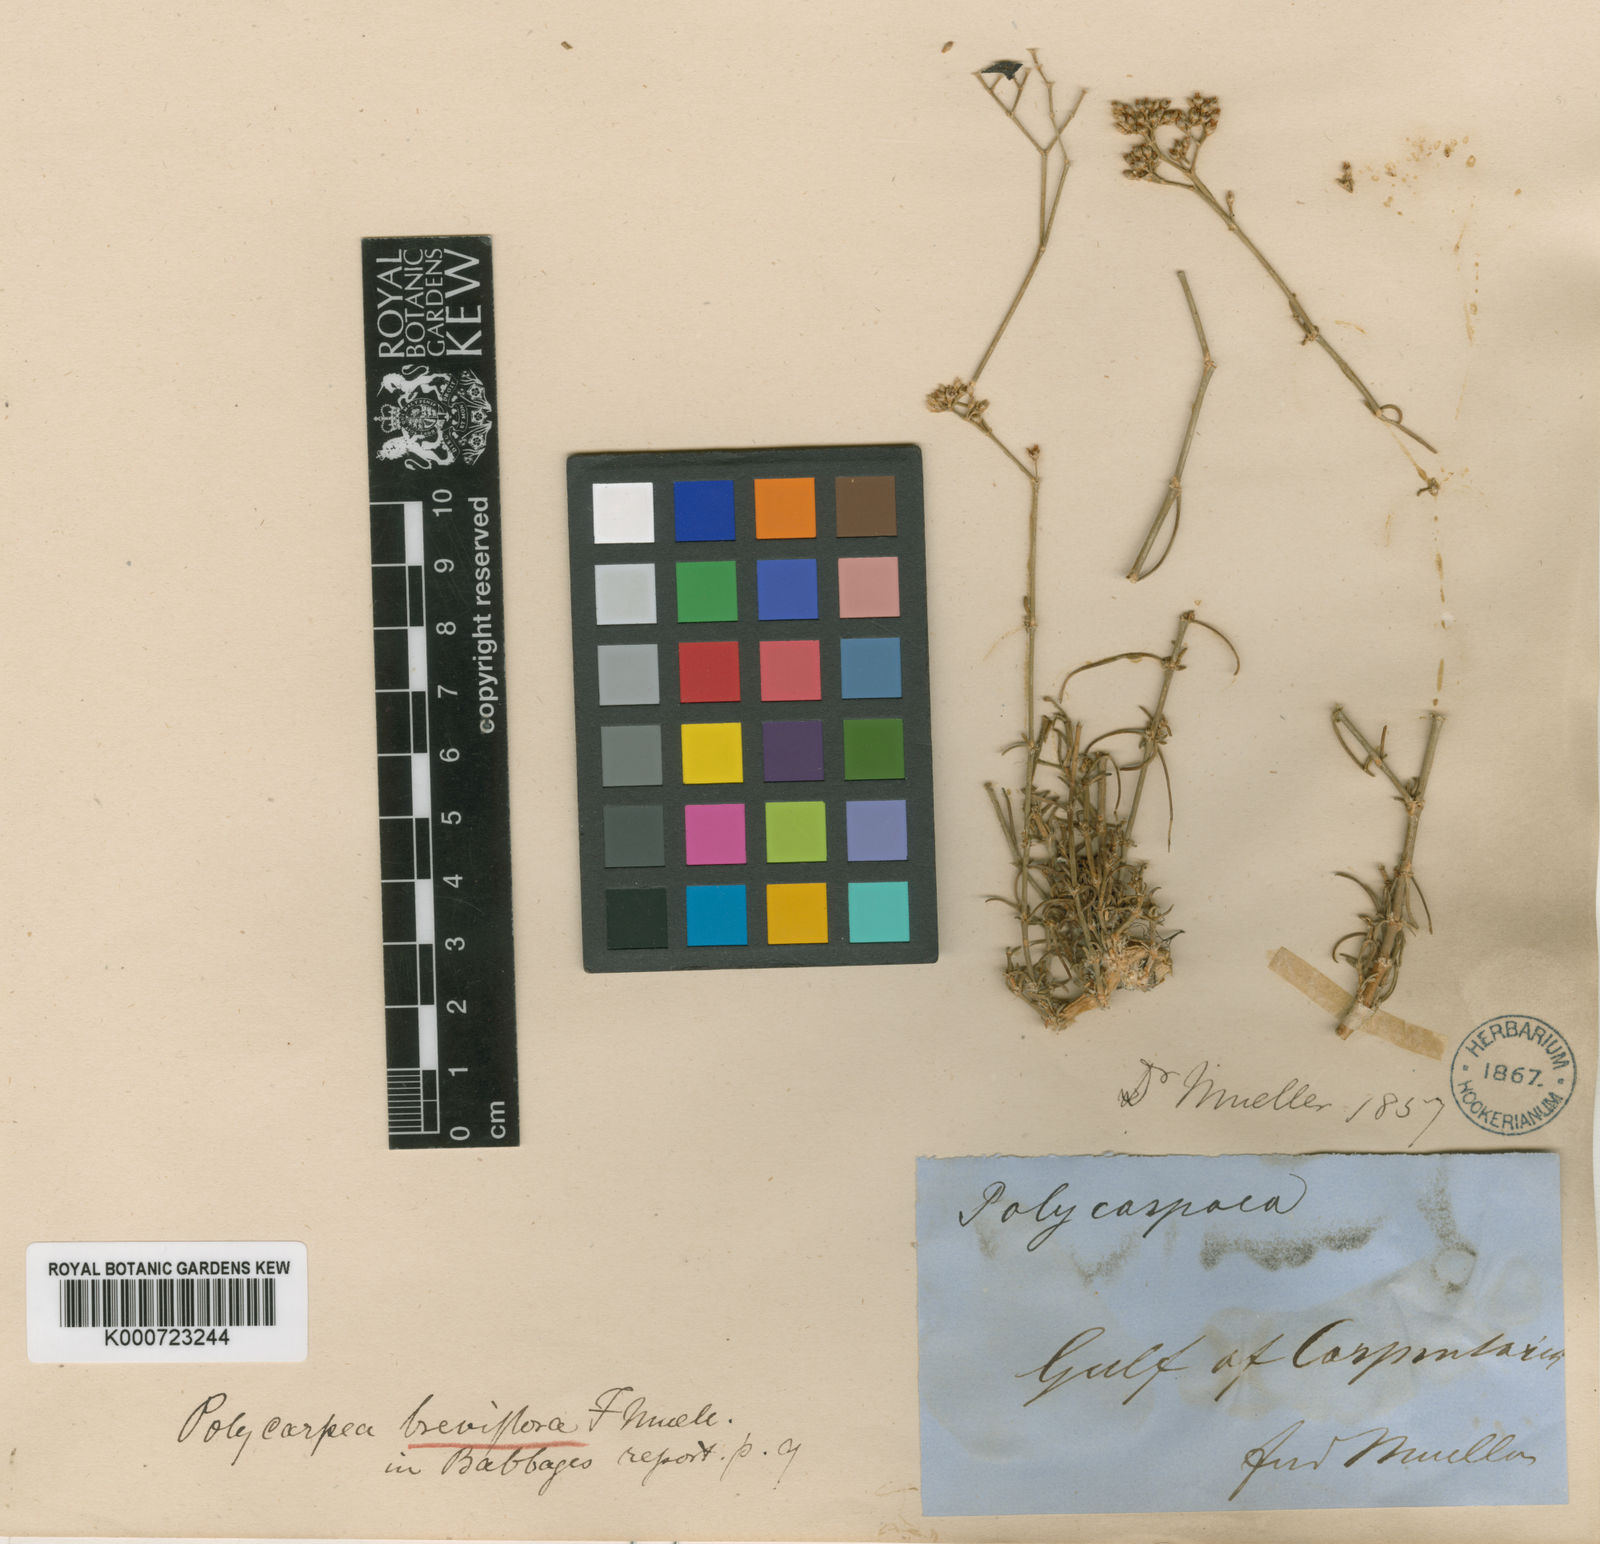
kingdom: Plantae
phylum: Tracheophyta
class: Magnoliopsida
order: Caryophyllales
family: Caryophyllaceae
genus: Polycarpaea
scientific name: Polycarpaea breviflora
